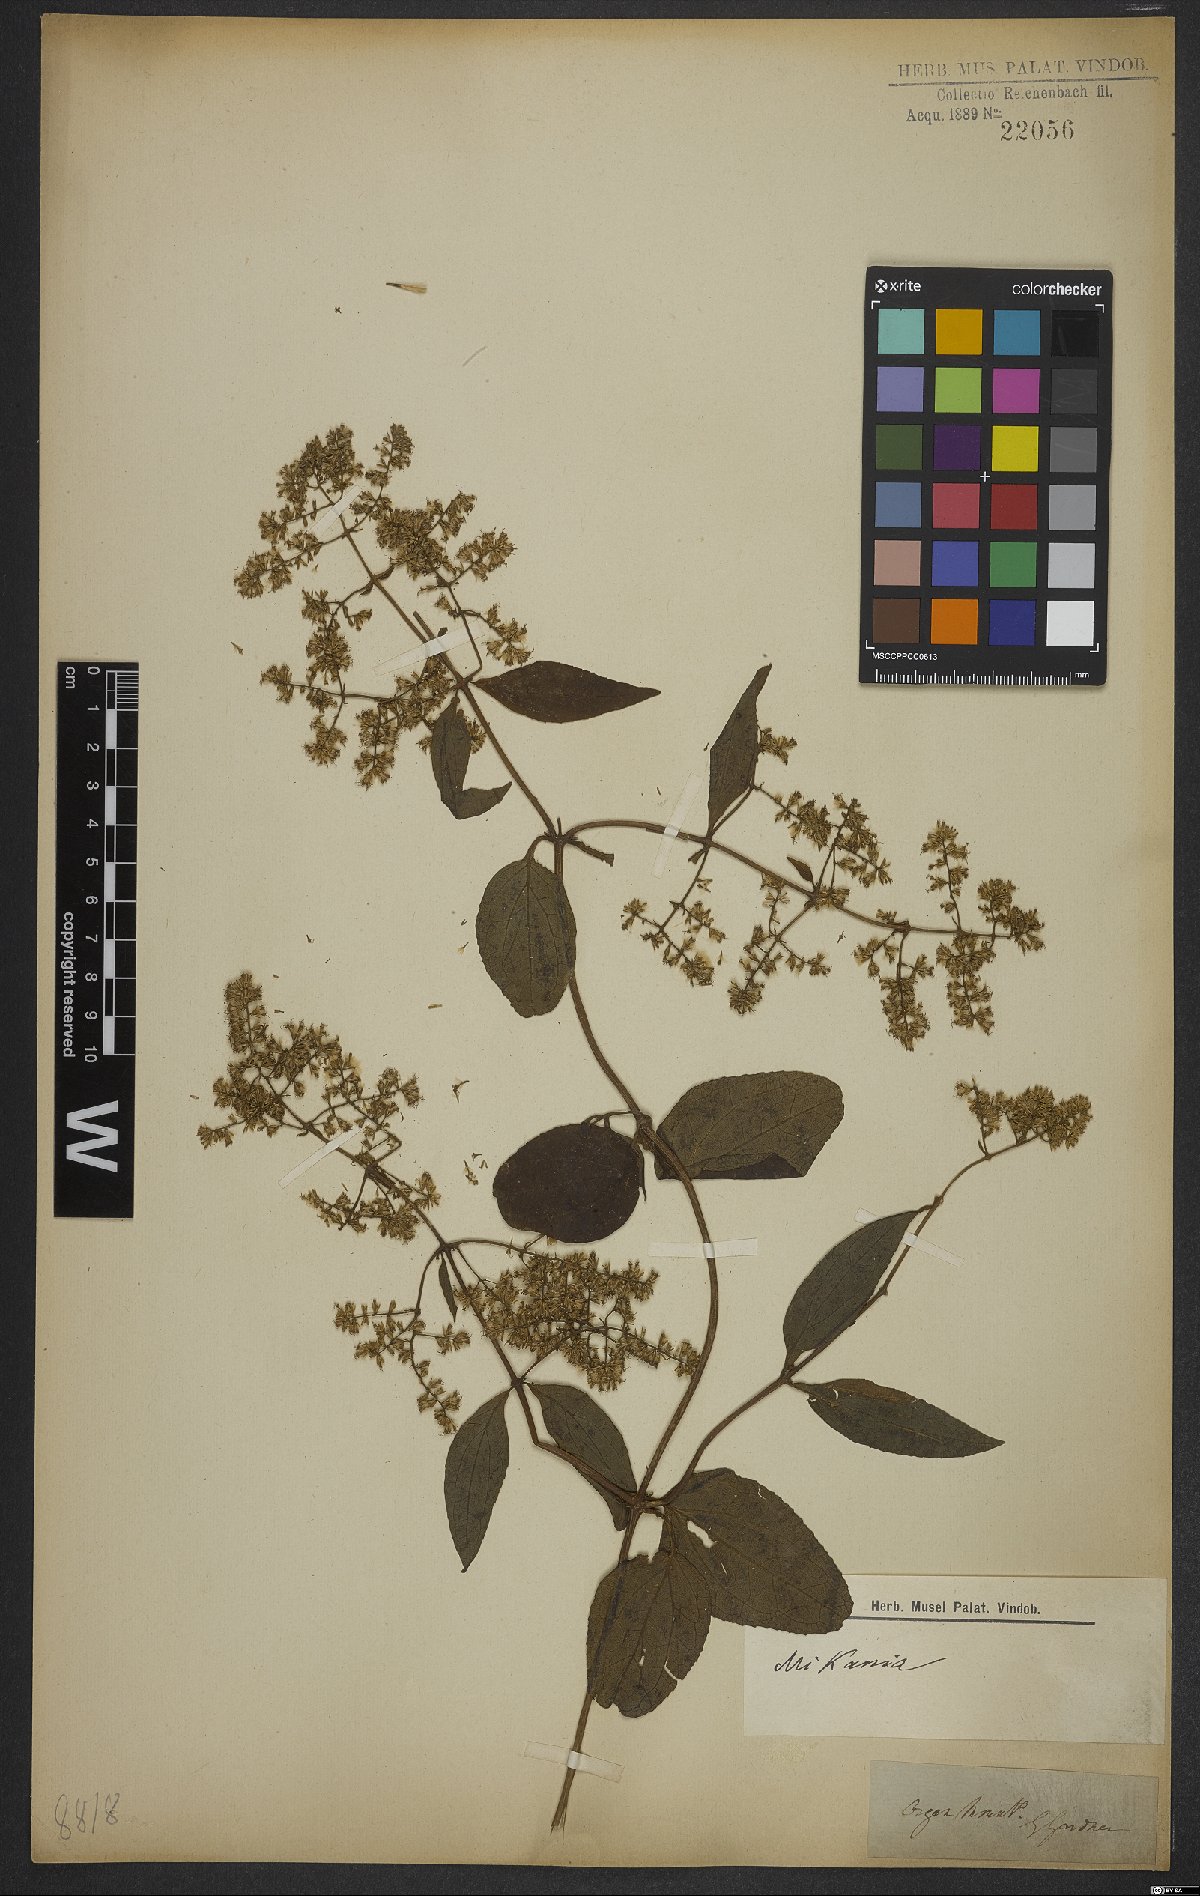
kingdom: Plantae
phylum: Tracheophyta
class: Magnoliopsida
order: Asterales
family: Asteraceae
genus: Mikania
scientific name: Mikania
